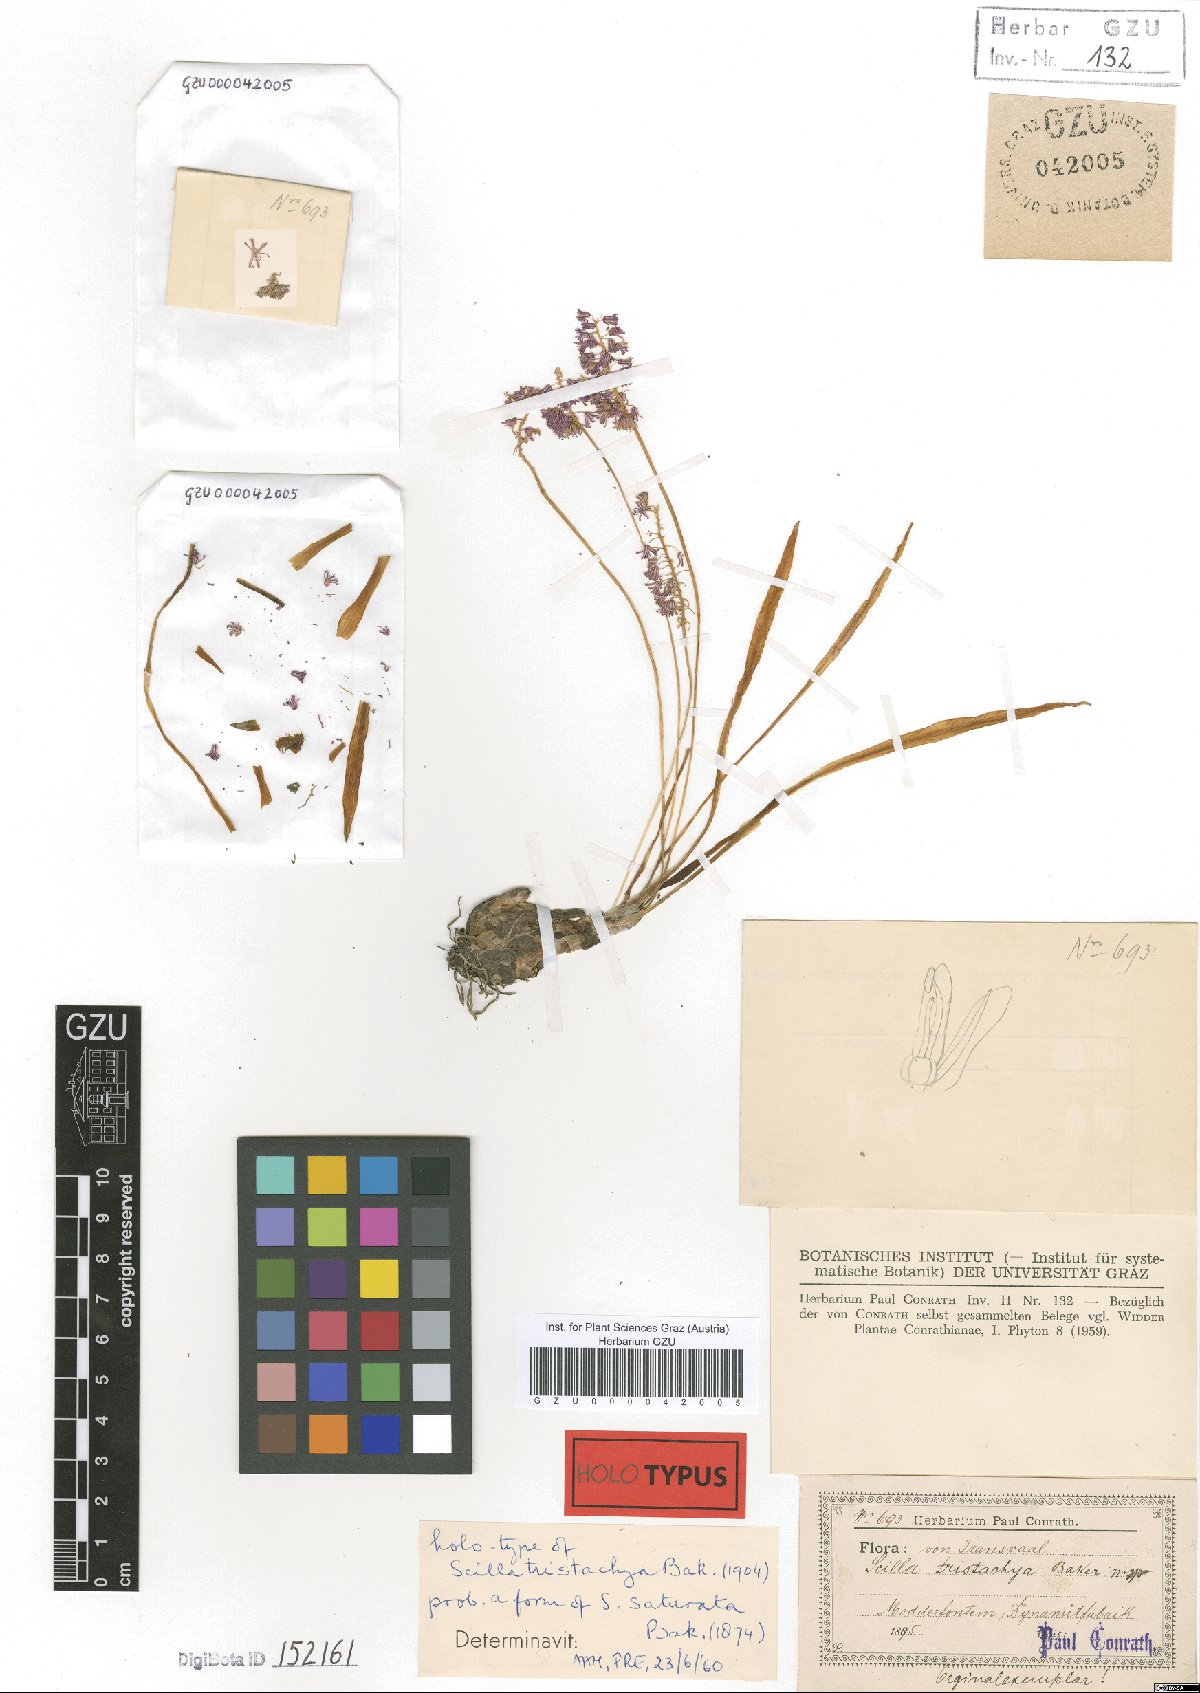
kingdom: Plantae
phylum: Tracheophyta
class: Liliopsida
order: Asparagales
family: Asparagaceae
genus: Ledebouria
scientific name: Ledebouria cooperi
